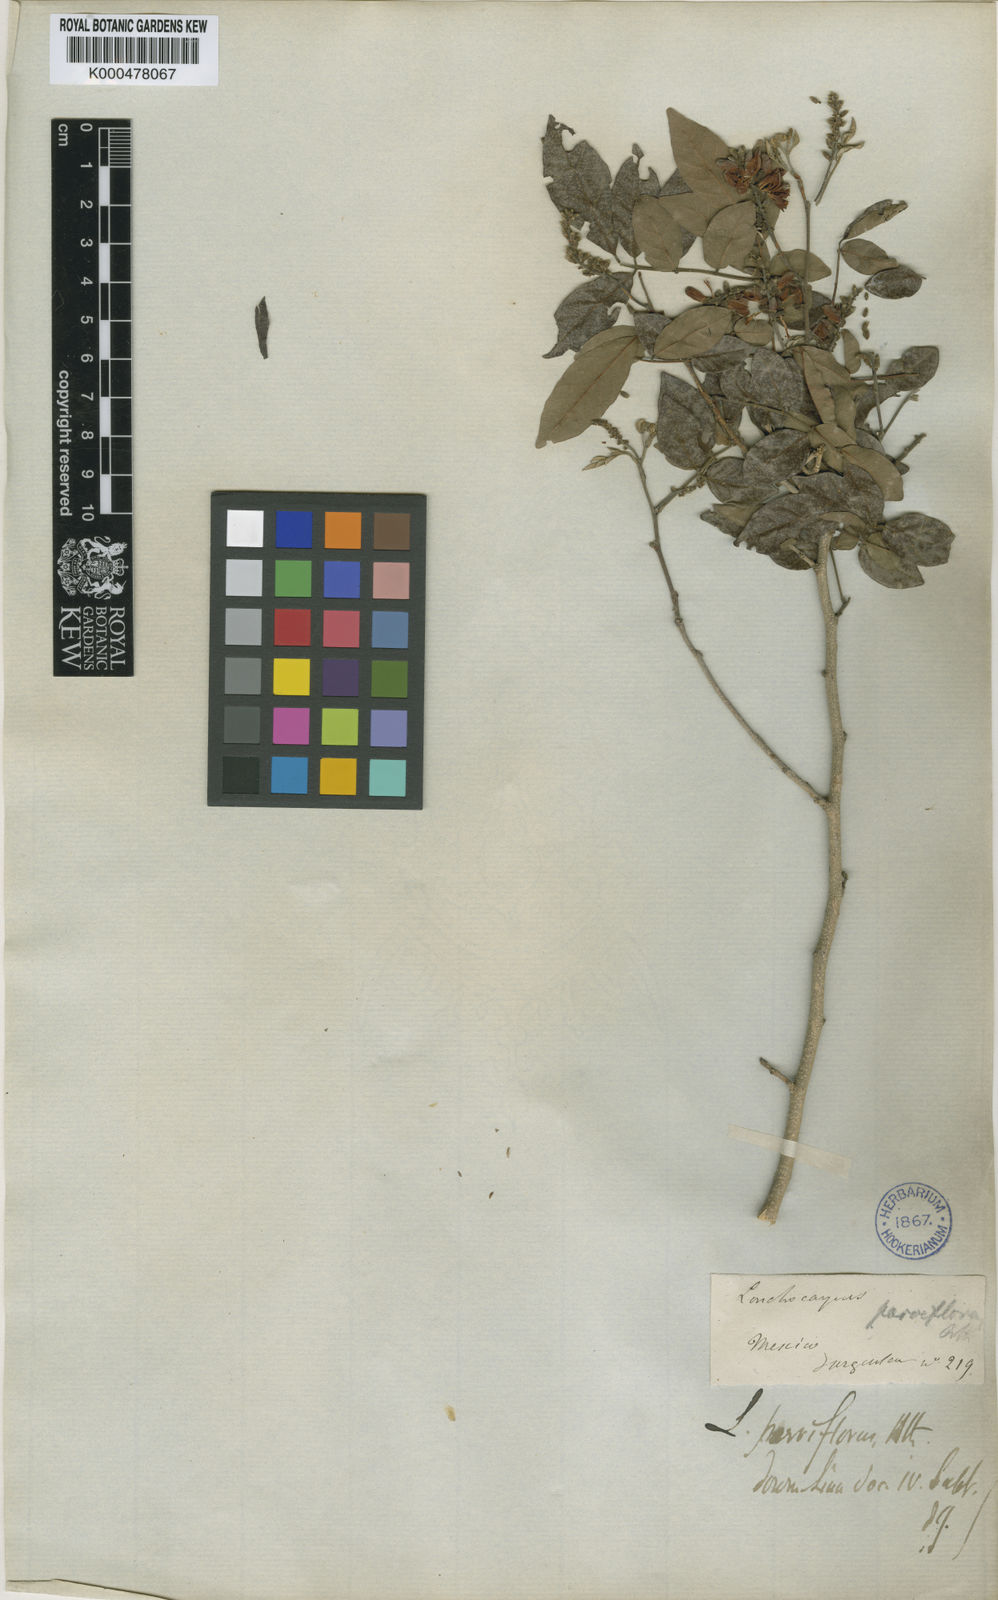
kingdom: Plantae
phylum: Tracheophyta
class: Magnoliopsida
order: Fabales
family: Fabaceae
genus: Lonchocarpus
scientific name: Lonchocarpus parviflorus
